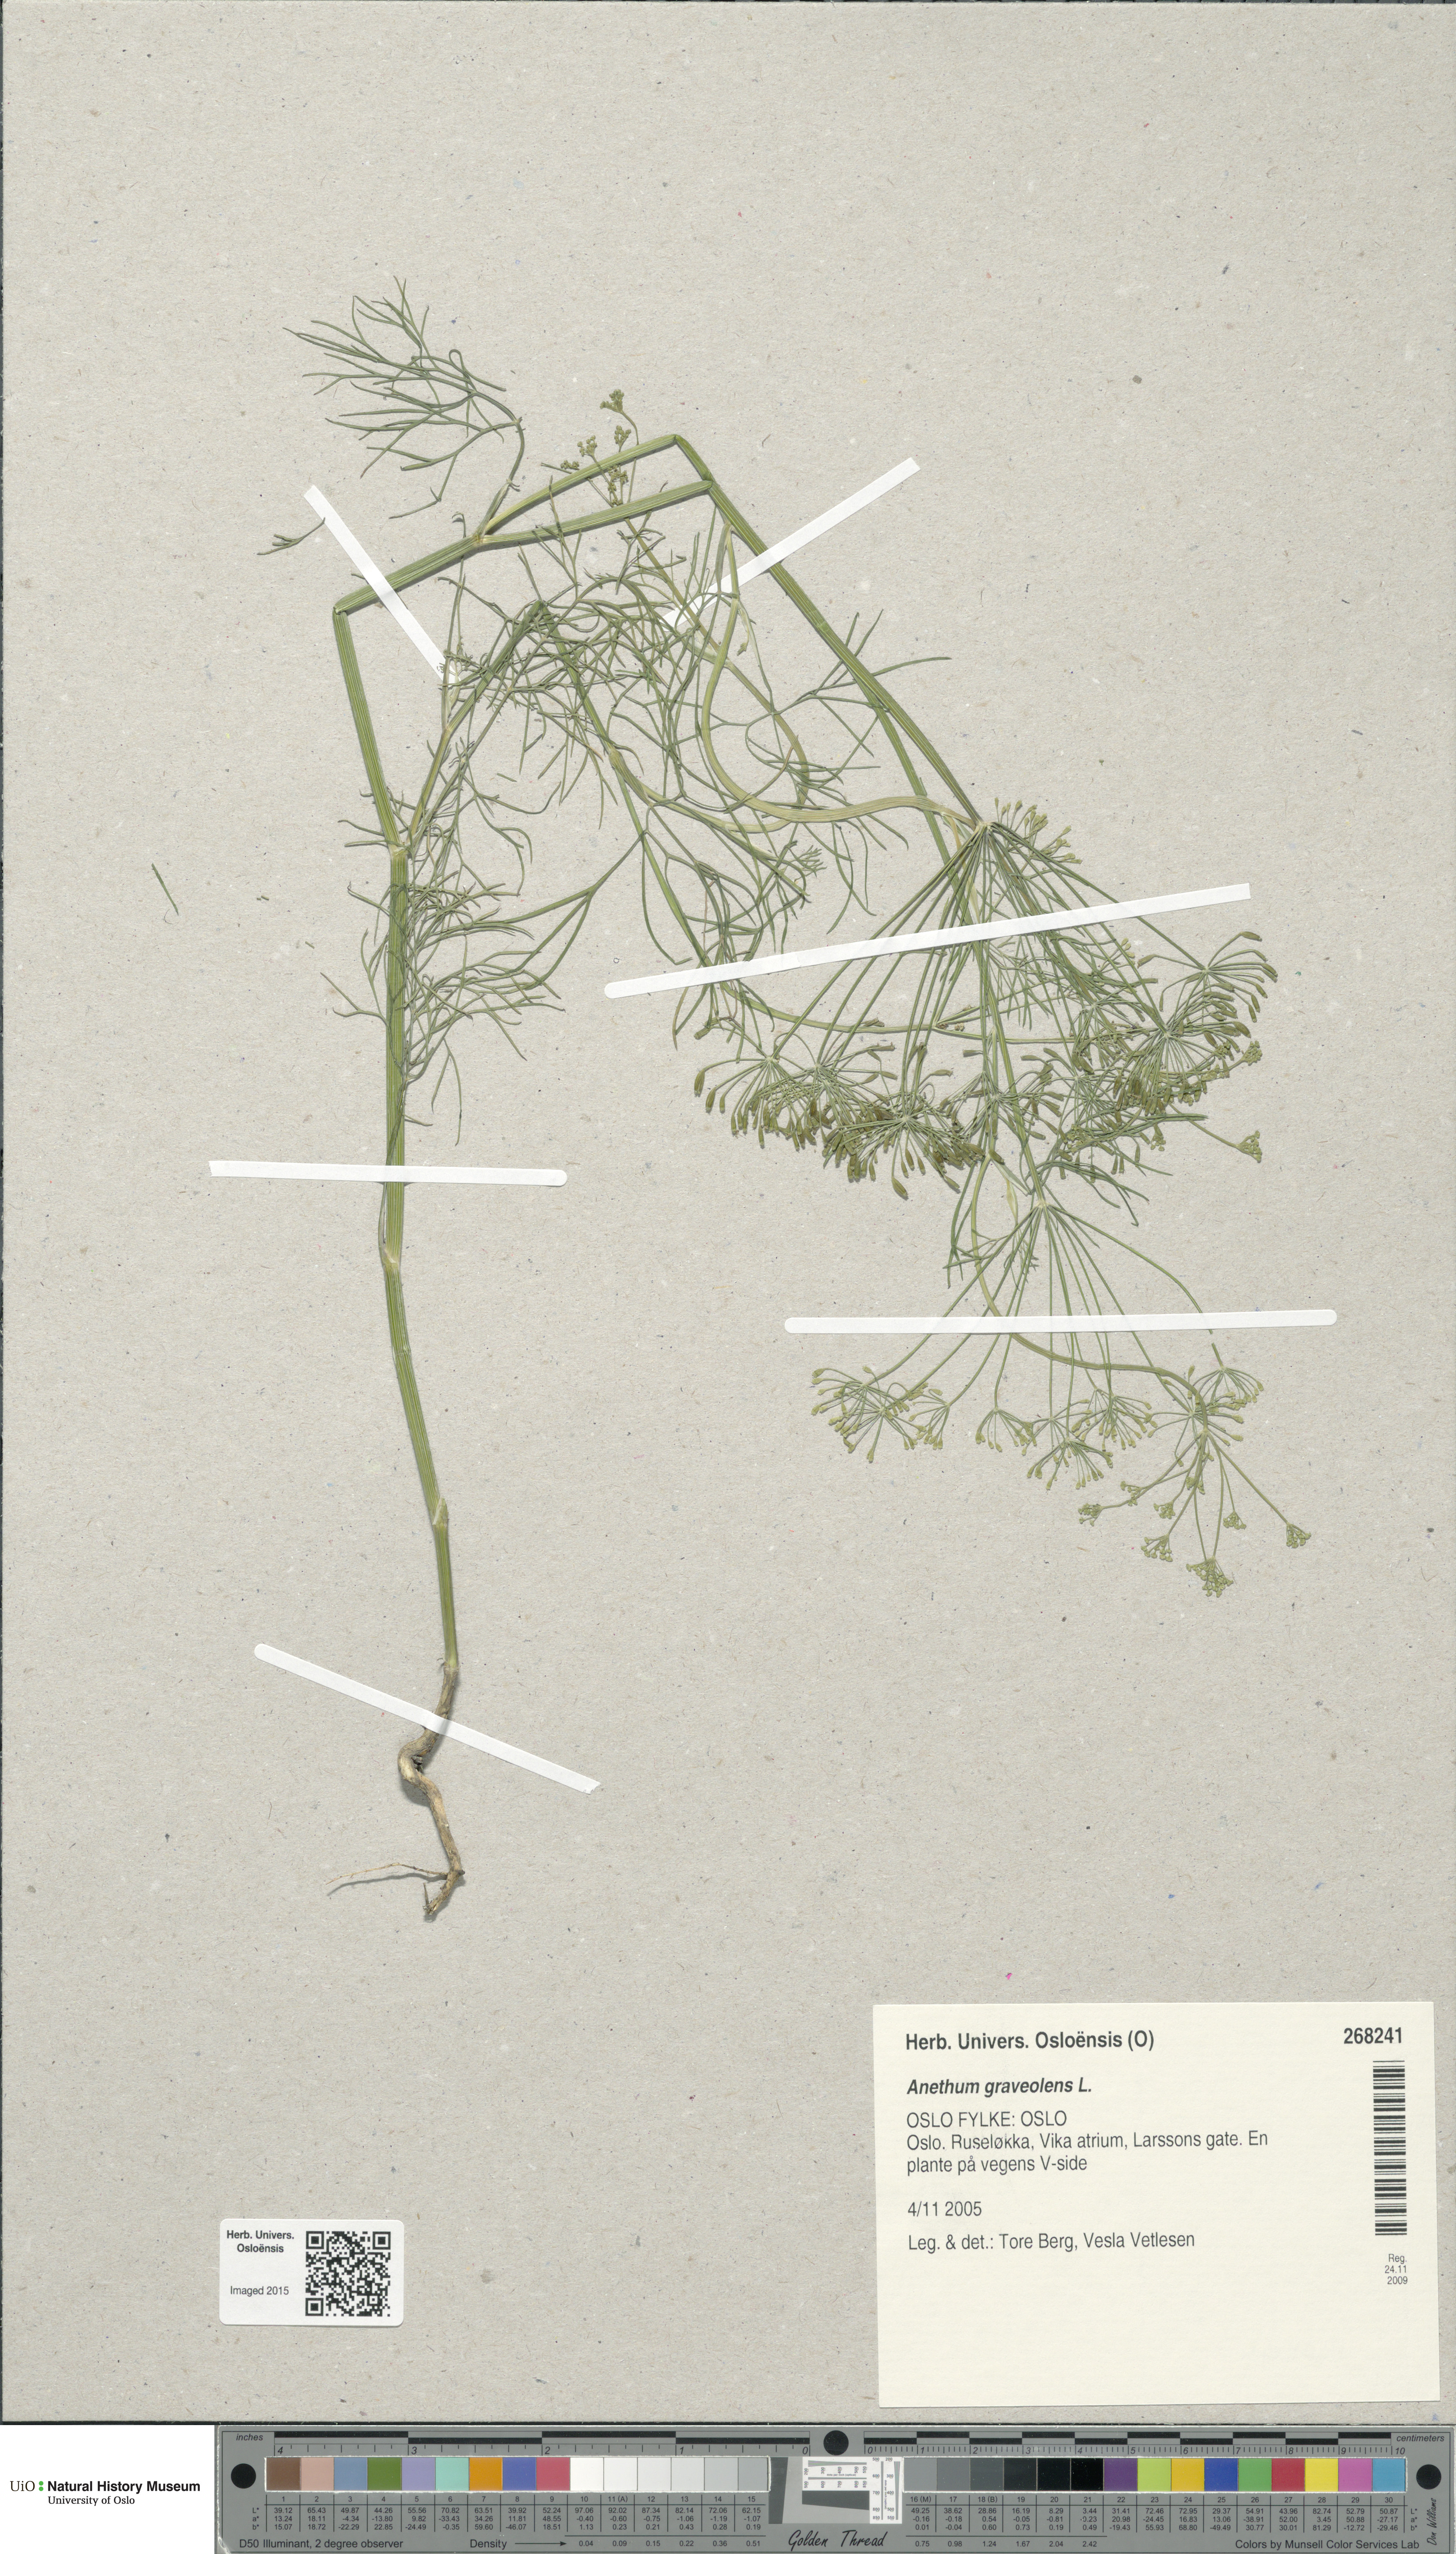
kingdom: Plantae
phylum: Tracheophyta
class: Magnoliopsida
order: Apiales
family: Apiaceae
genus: Anethum
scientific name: Anethum graveolens
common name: Dill
